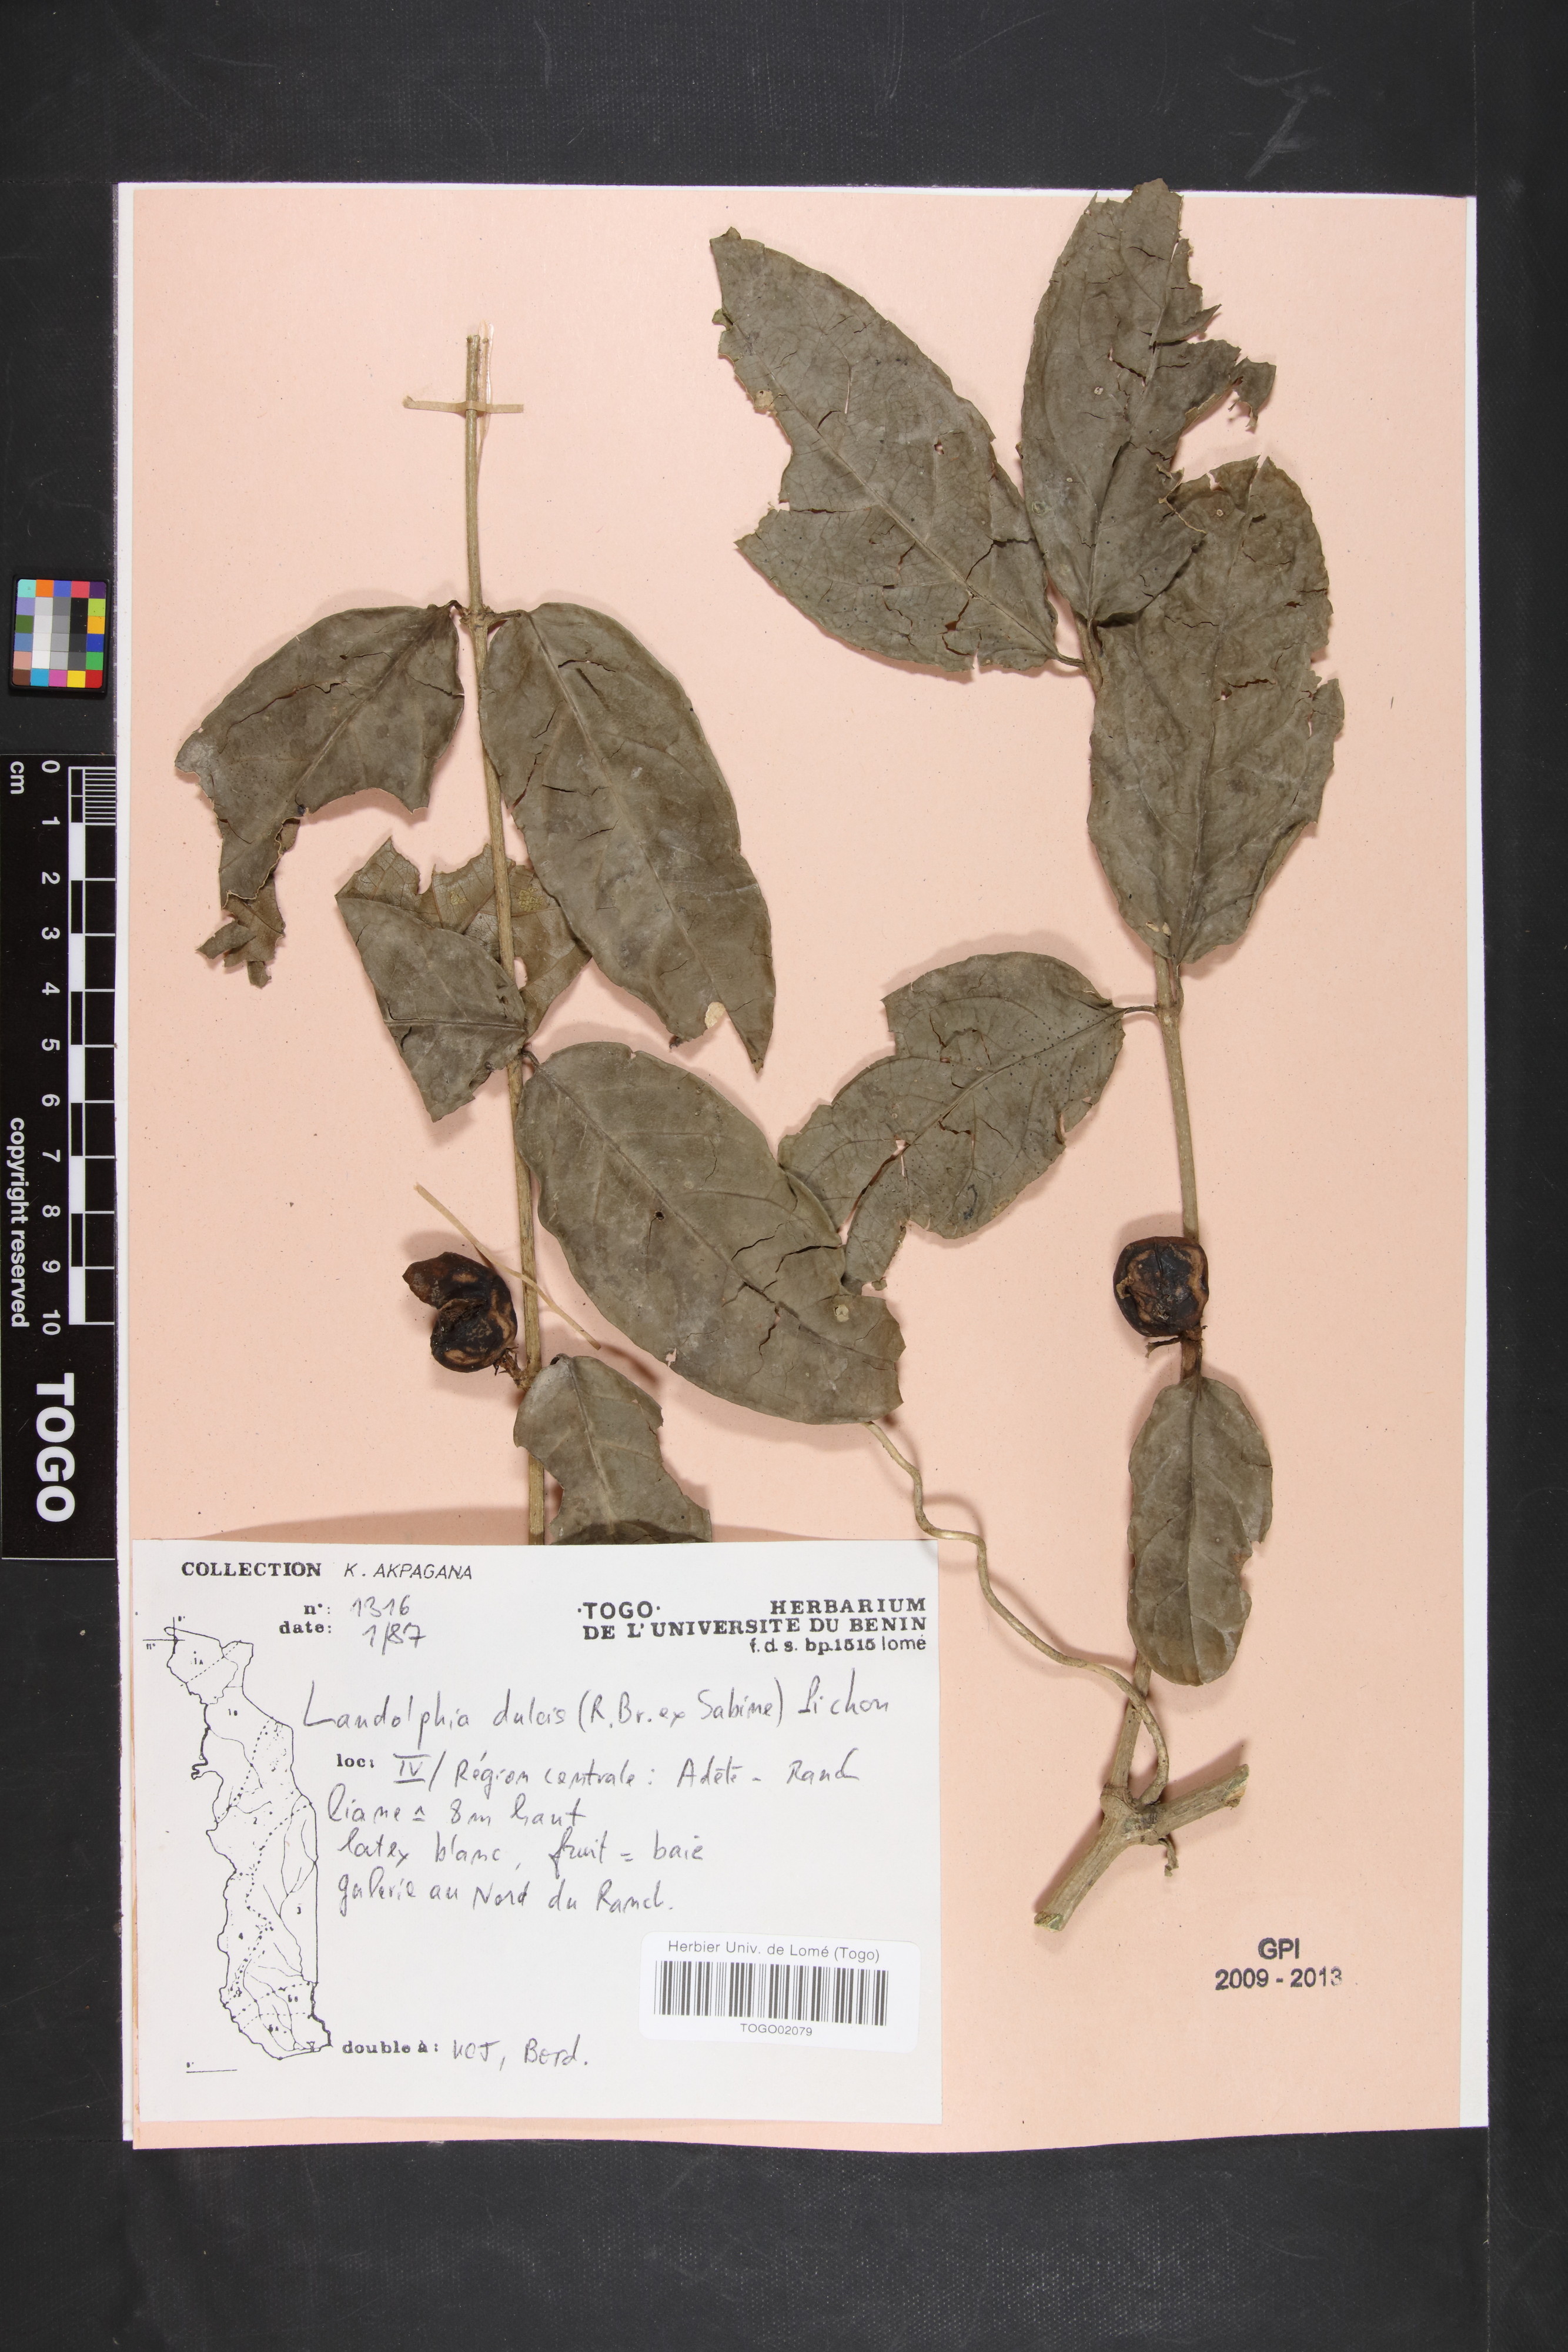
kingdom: Plantae
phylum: Tracheophyta
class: Magnoliopsida
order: Gentianales
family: Apocynaceae
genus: Landolphia
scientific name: Landolphia dulcis
